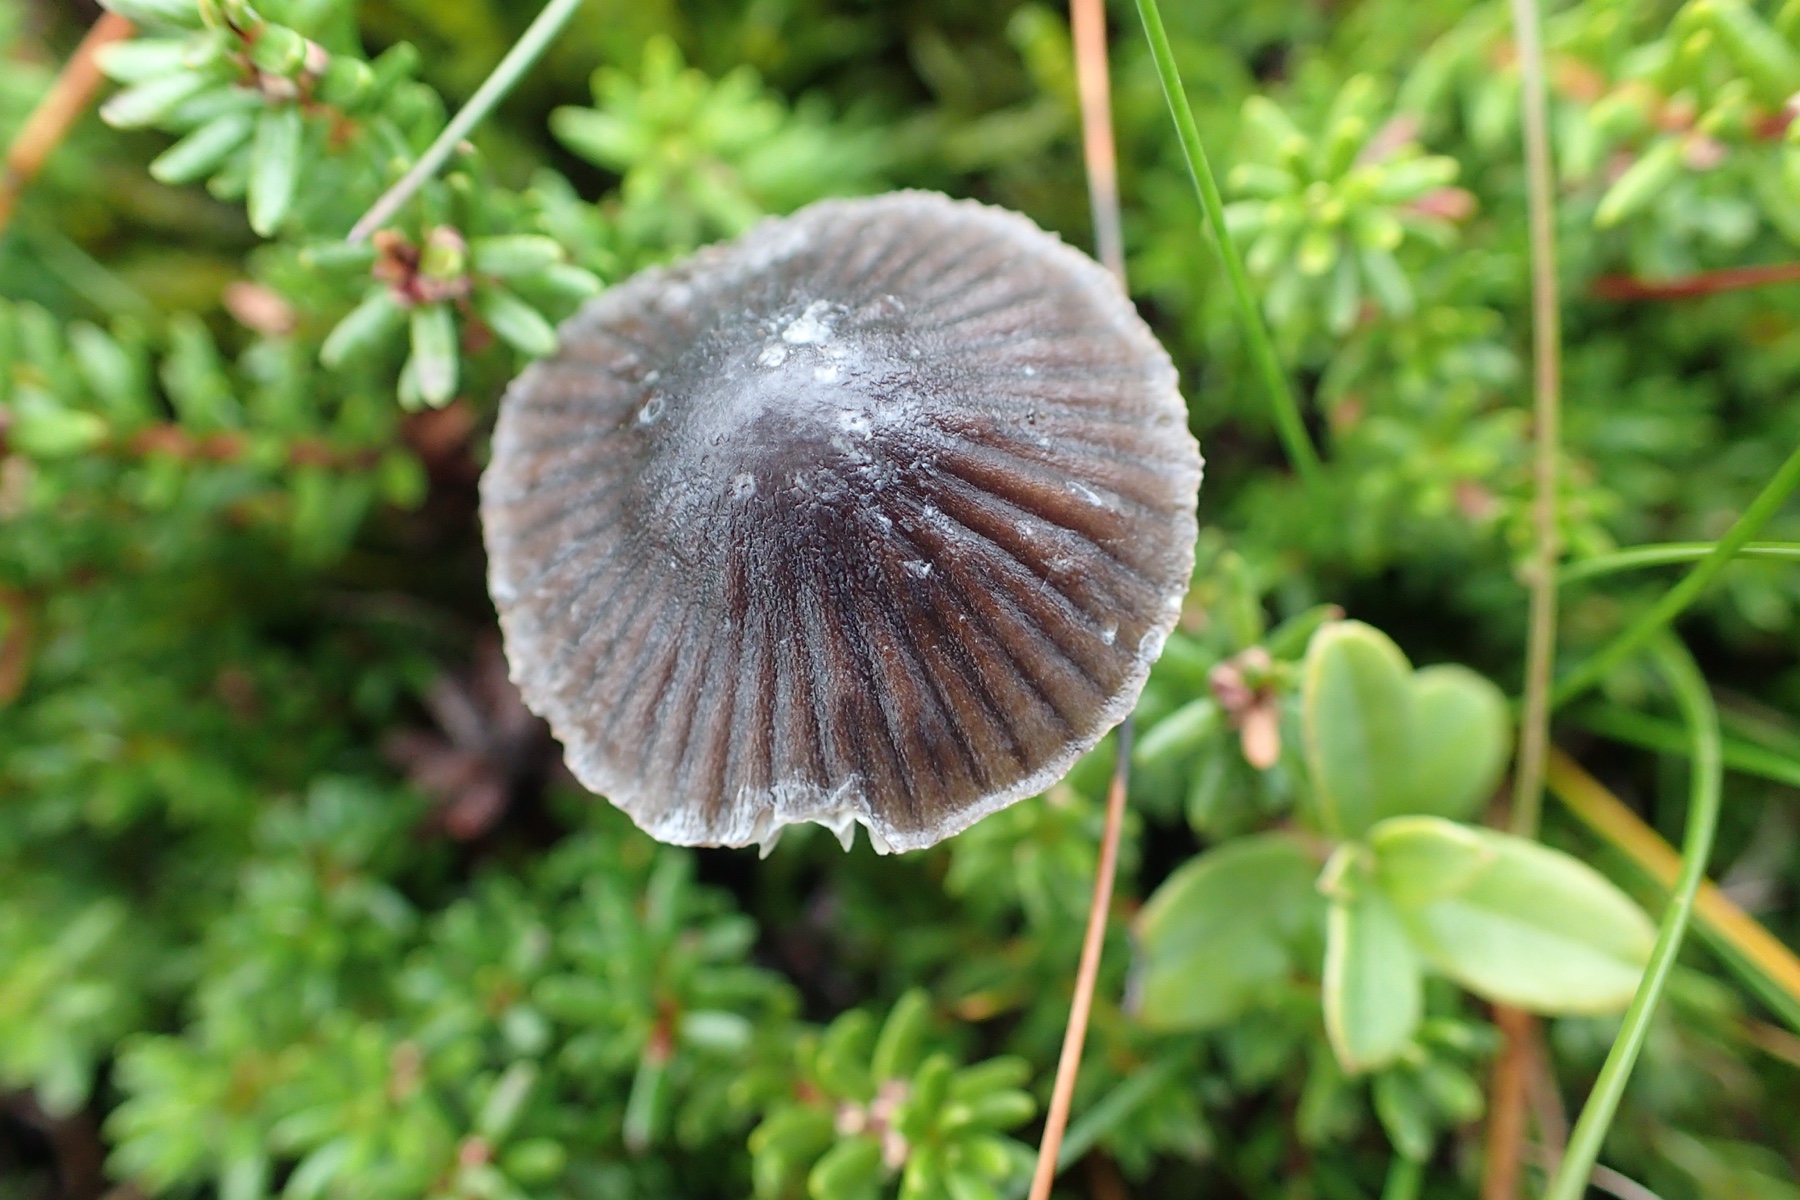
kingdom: Fungi
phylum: Basidiomycota
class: Agaricomycetes
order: Agaricales
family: Mycenaceae
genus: Mycena
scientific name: Mycena leptocephala
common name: klor-huesvamp
